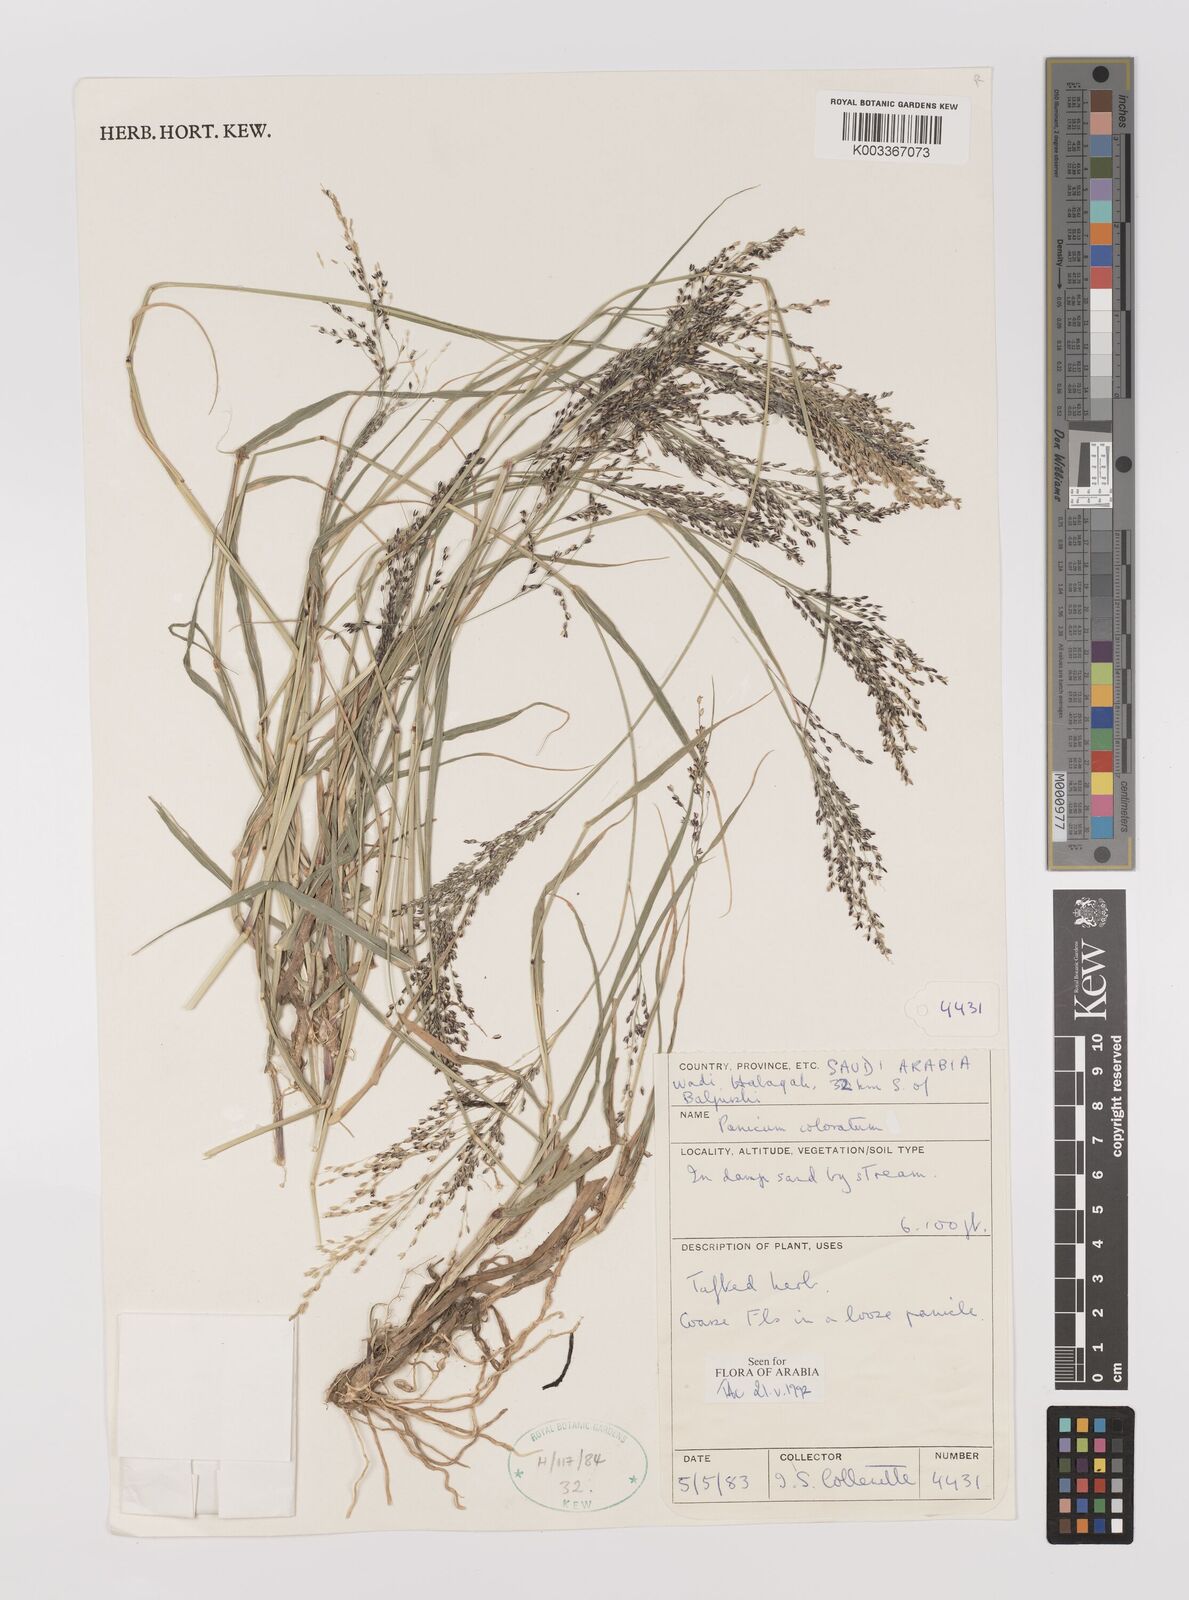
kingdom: Plantae
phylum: Tracheophyta
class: Liliopsida
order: Poales
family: Poaceae
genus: Panicum
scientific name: Panicum coloratum
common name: Kleingrass
